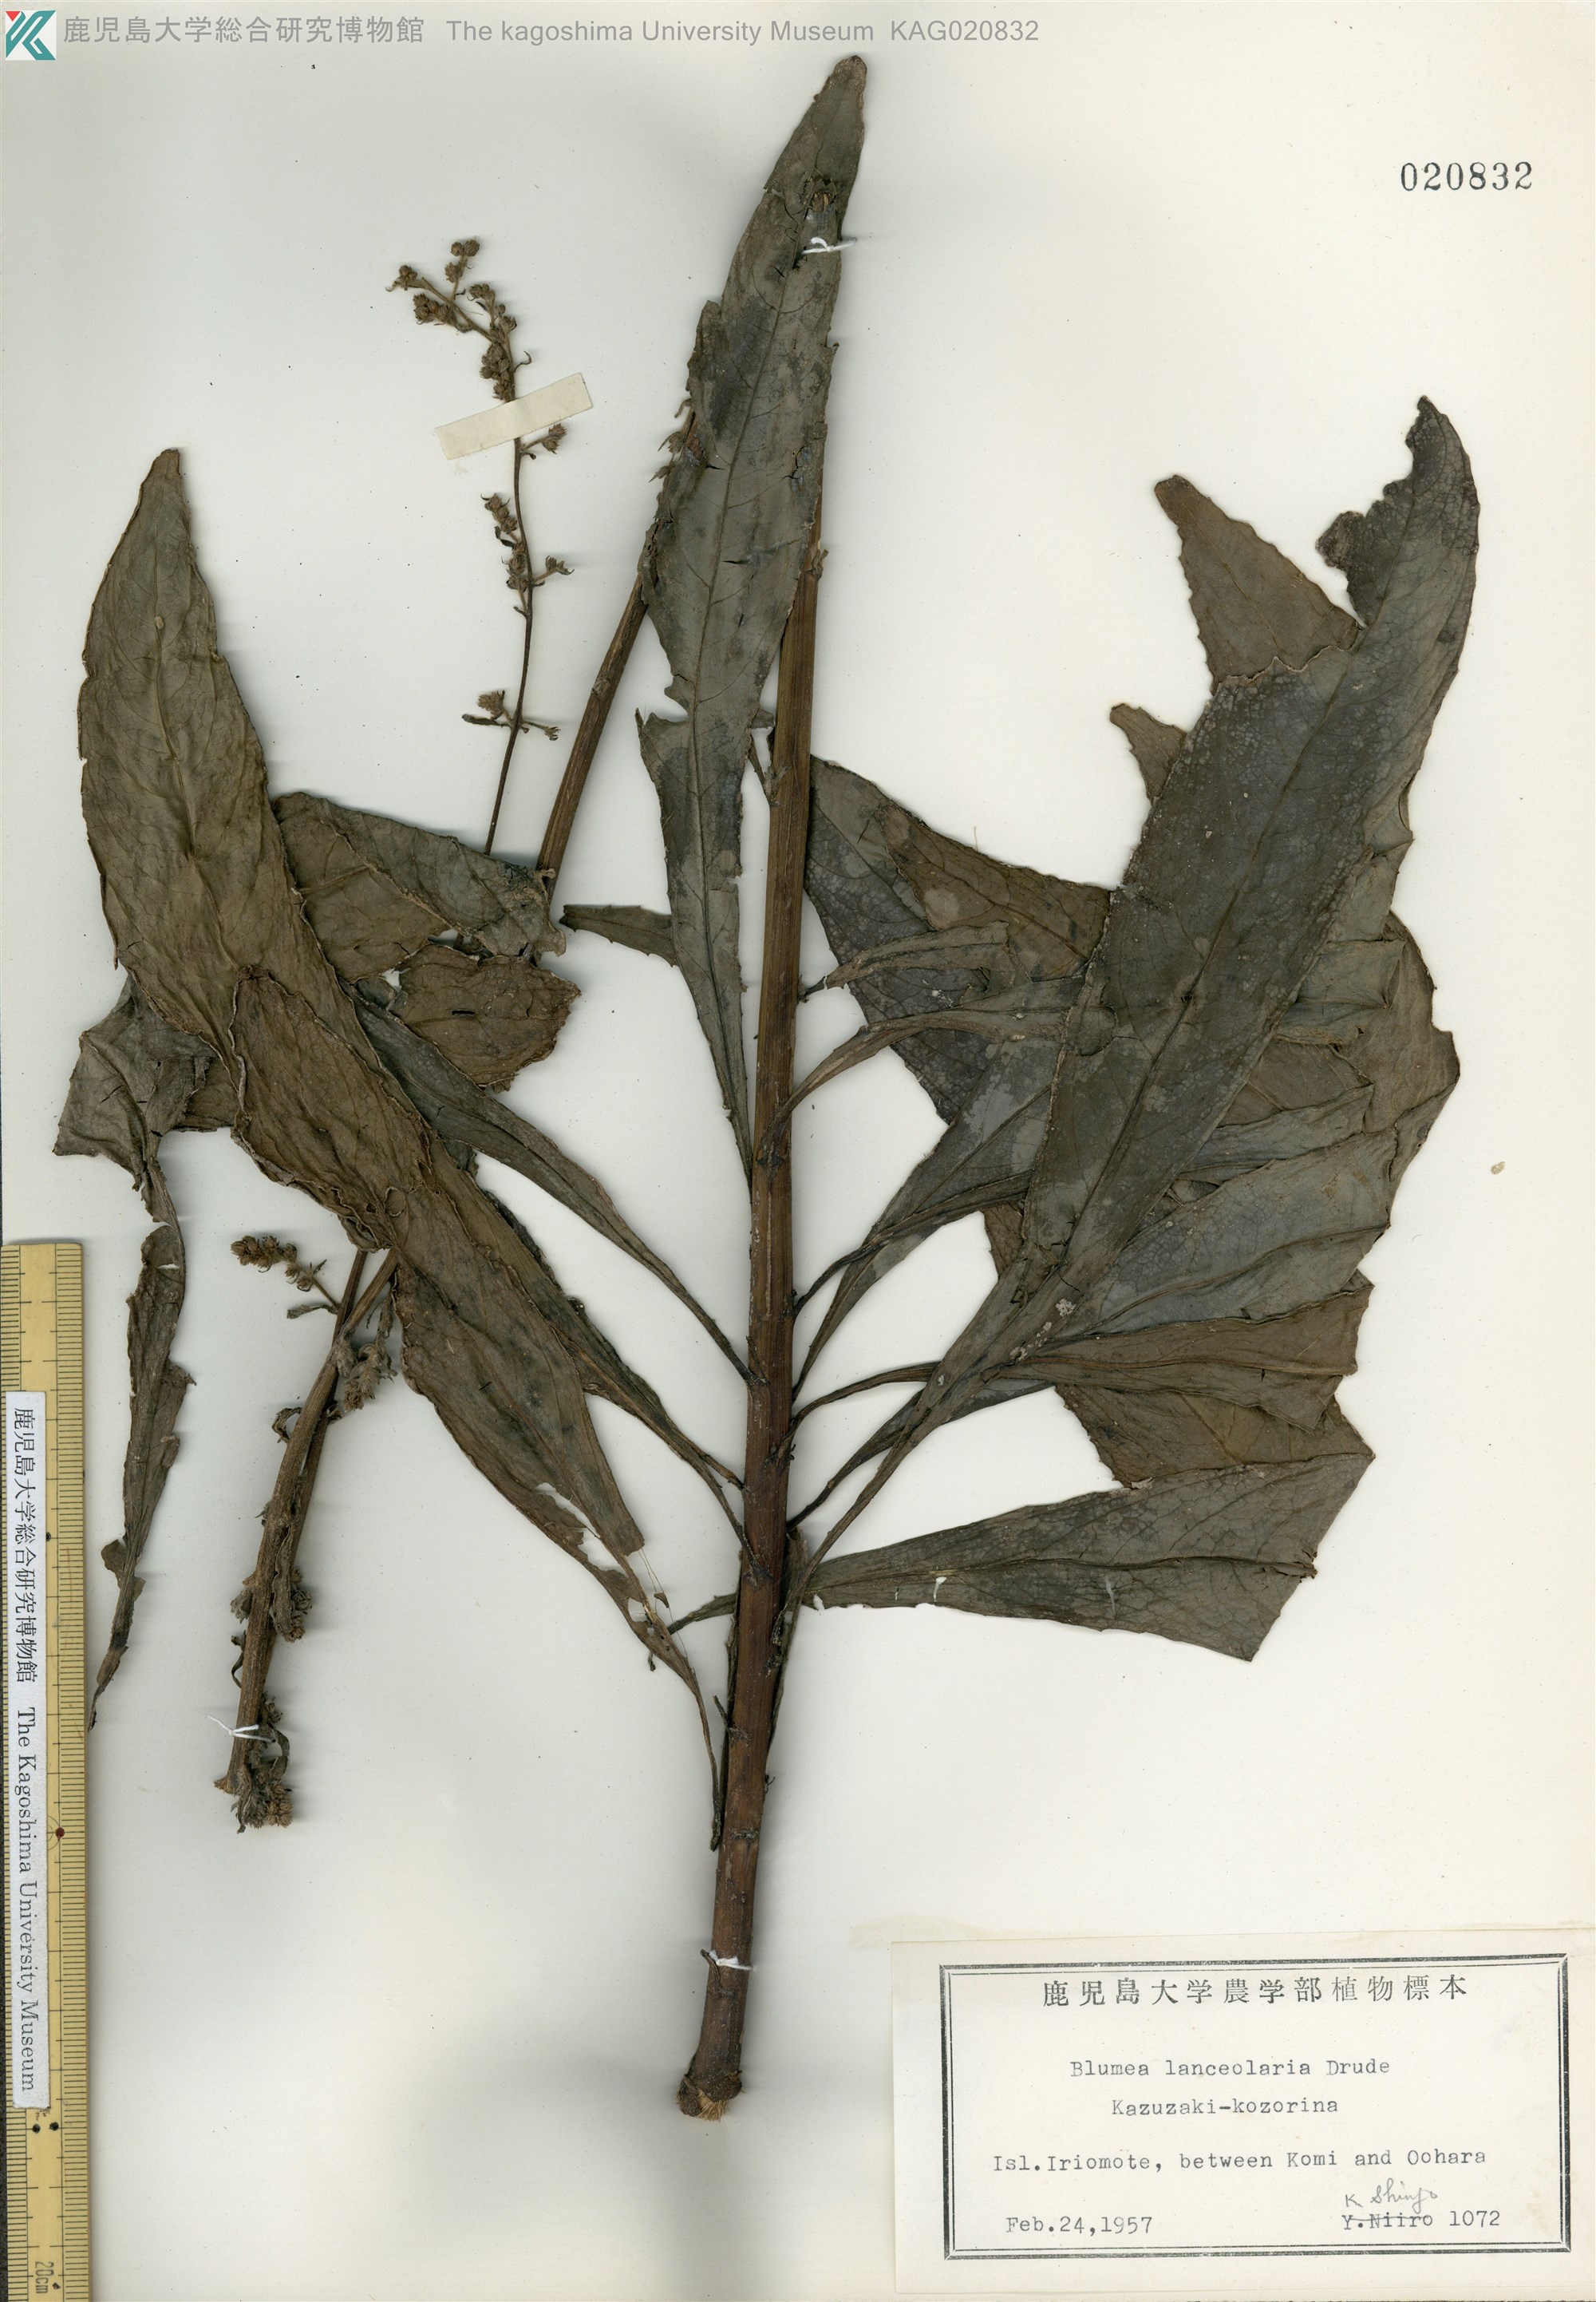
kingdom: Plantae
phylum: Tracheophyta
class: Magnoliopsida
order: Asterales
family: Asteraceae
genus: Blumea
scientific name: Blumea lanceolaria
